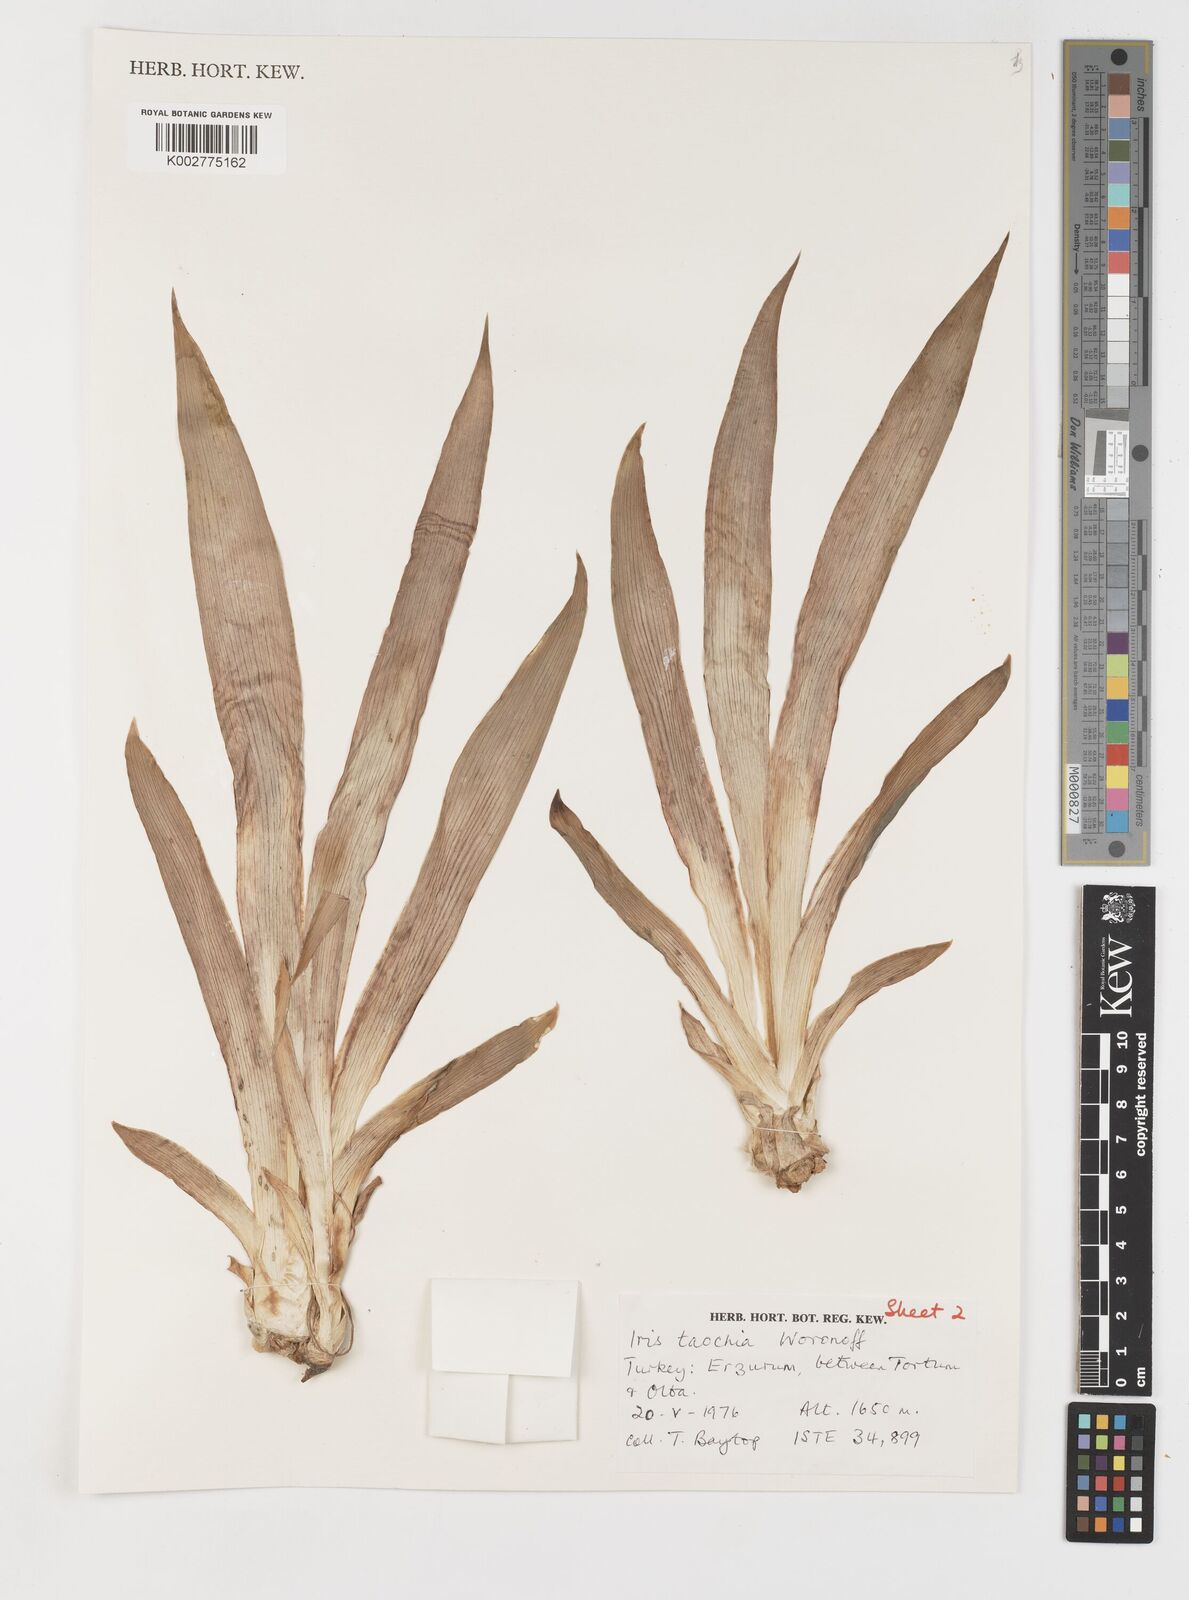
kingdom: Plantae
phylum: Tracheophyta
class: Liliopsida
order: Asparagales
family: Iridaceae
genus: Iris
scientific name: Iris taochia
